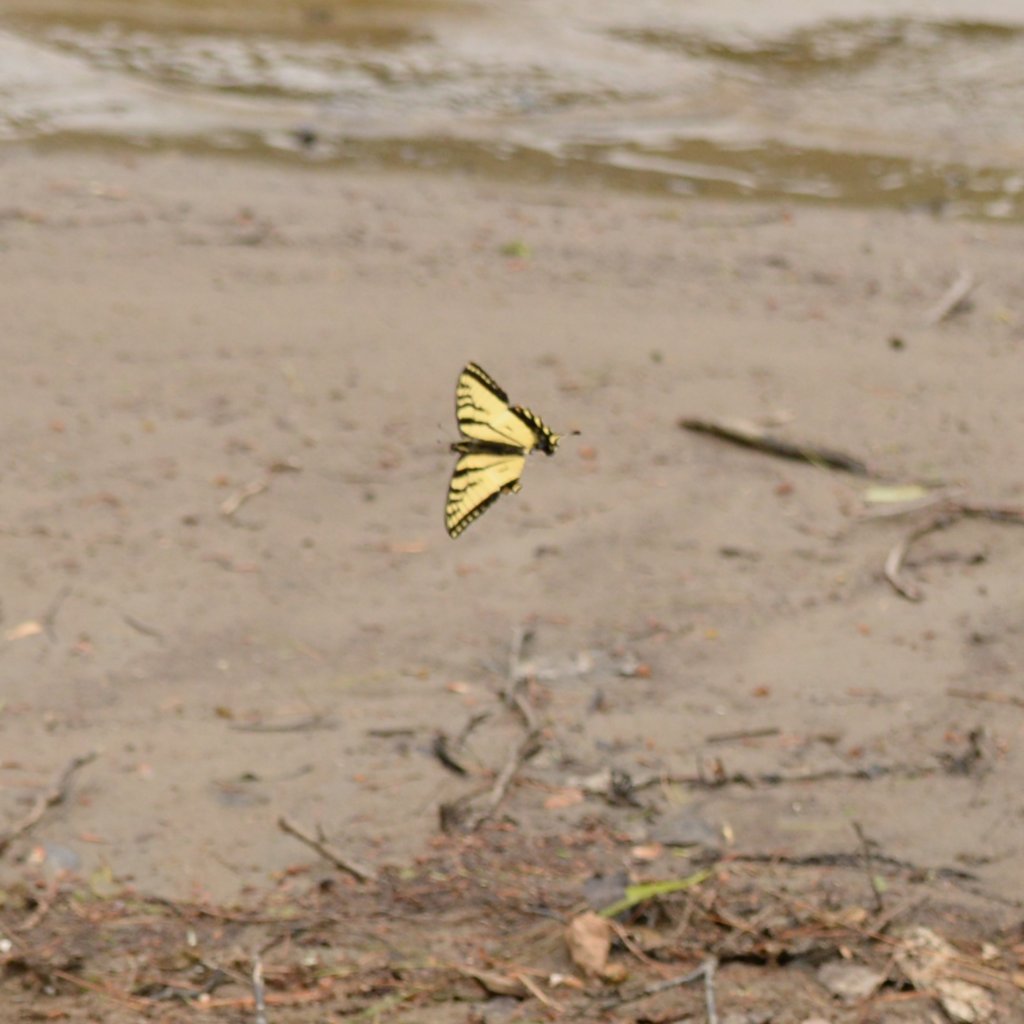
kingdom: Animalia
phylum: Arthropoda
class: Insecta
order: Lepidoptera
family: Papilionidae
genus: Pterourus
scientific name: Pterourus canadensis
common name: Canadian Tiger Swallowtail
